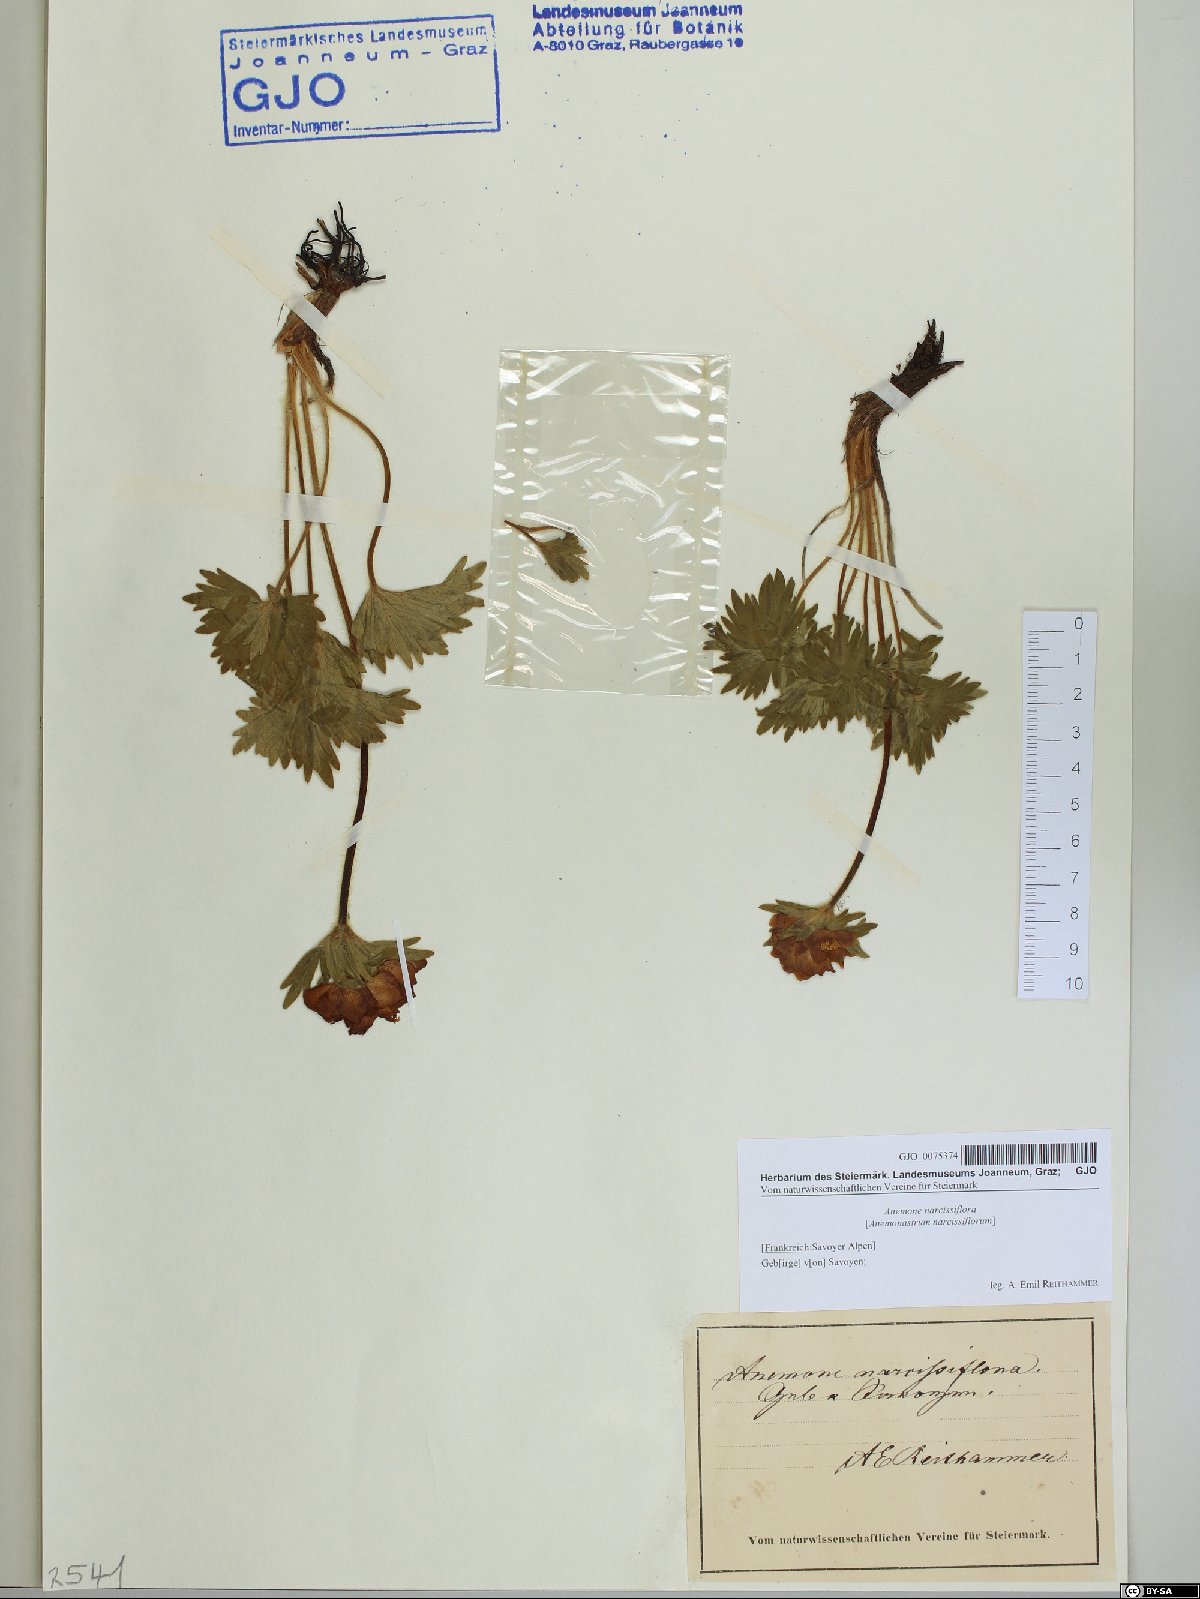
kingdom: Plantae
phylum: Tracheophyta
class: Magnoliopsida
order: Ranunculales
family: Ranunculaceae
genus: Anemonastrum
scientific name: Anemonastrum narcissiflorum
